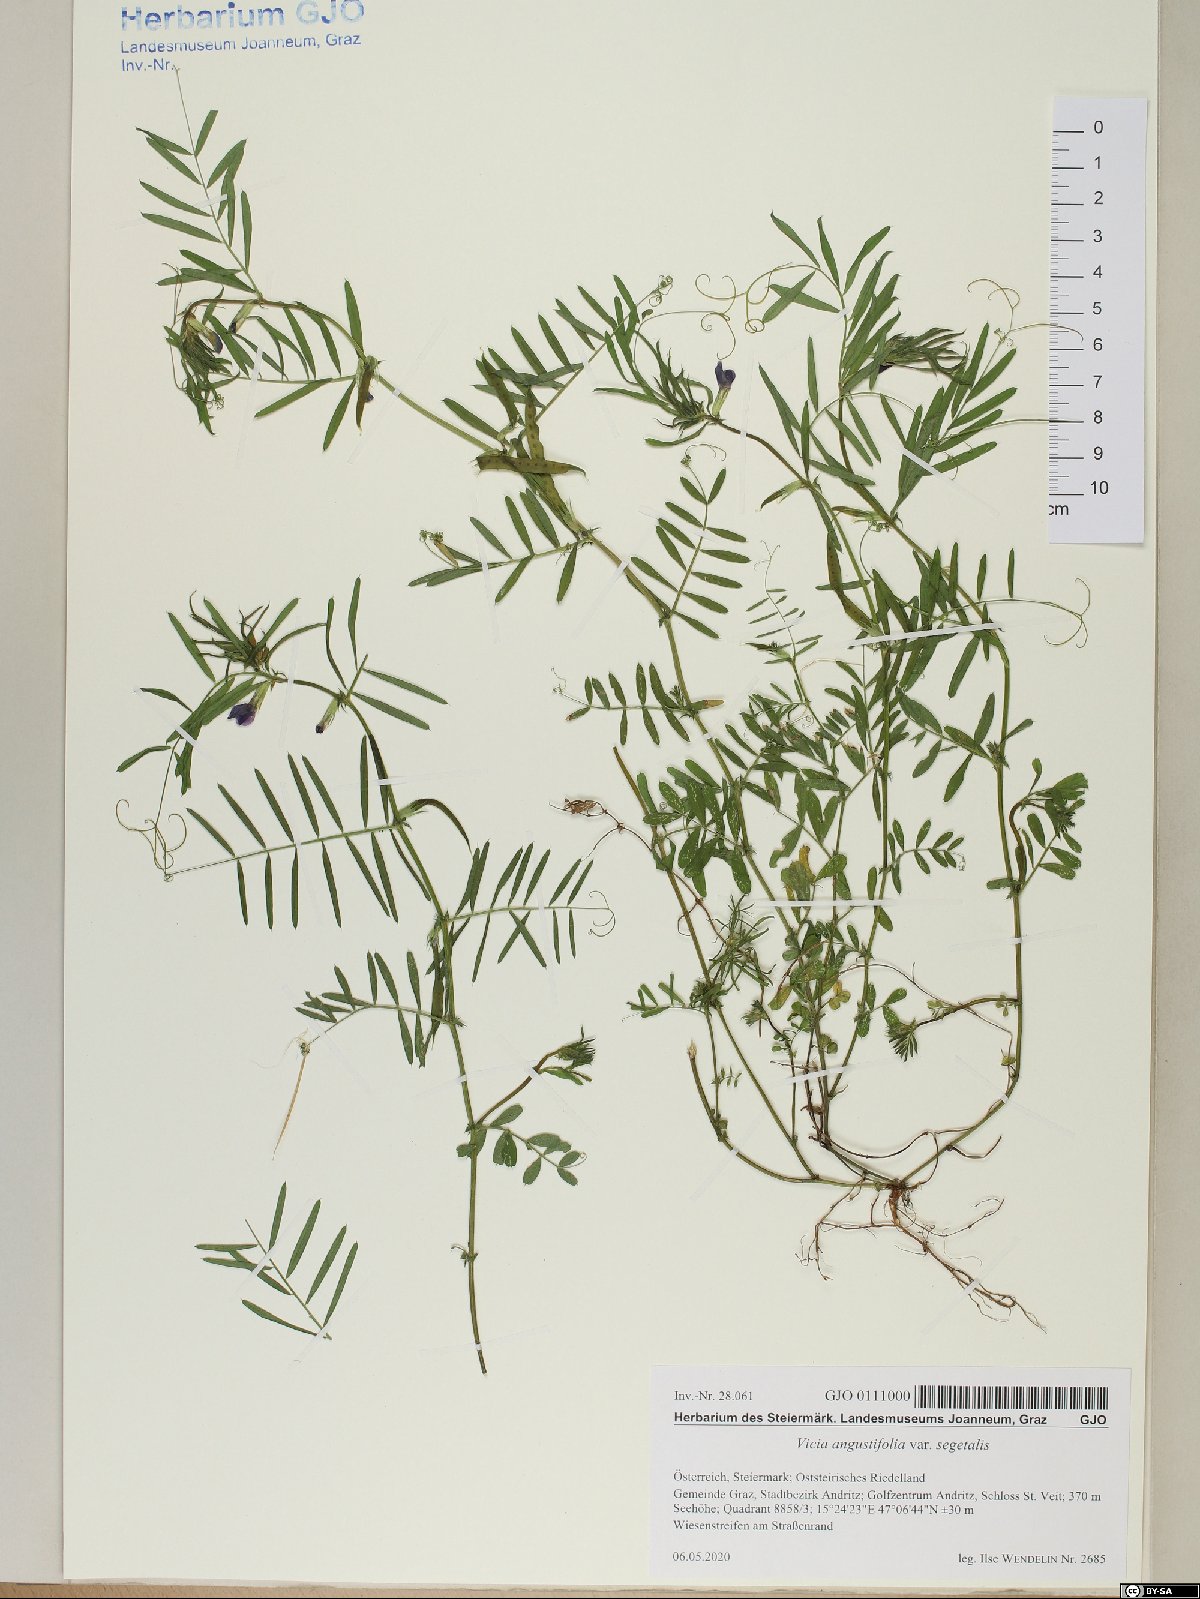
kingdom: Plantae
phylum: Tracheophyta
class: Magnoliopsida
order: Fabales
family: Fabaceae
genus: Vicia
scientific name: Vicia sativa
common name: Garden vetch
